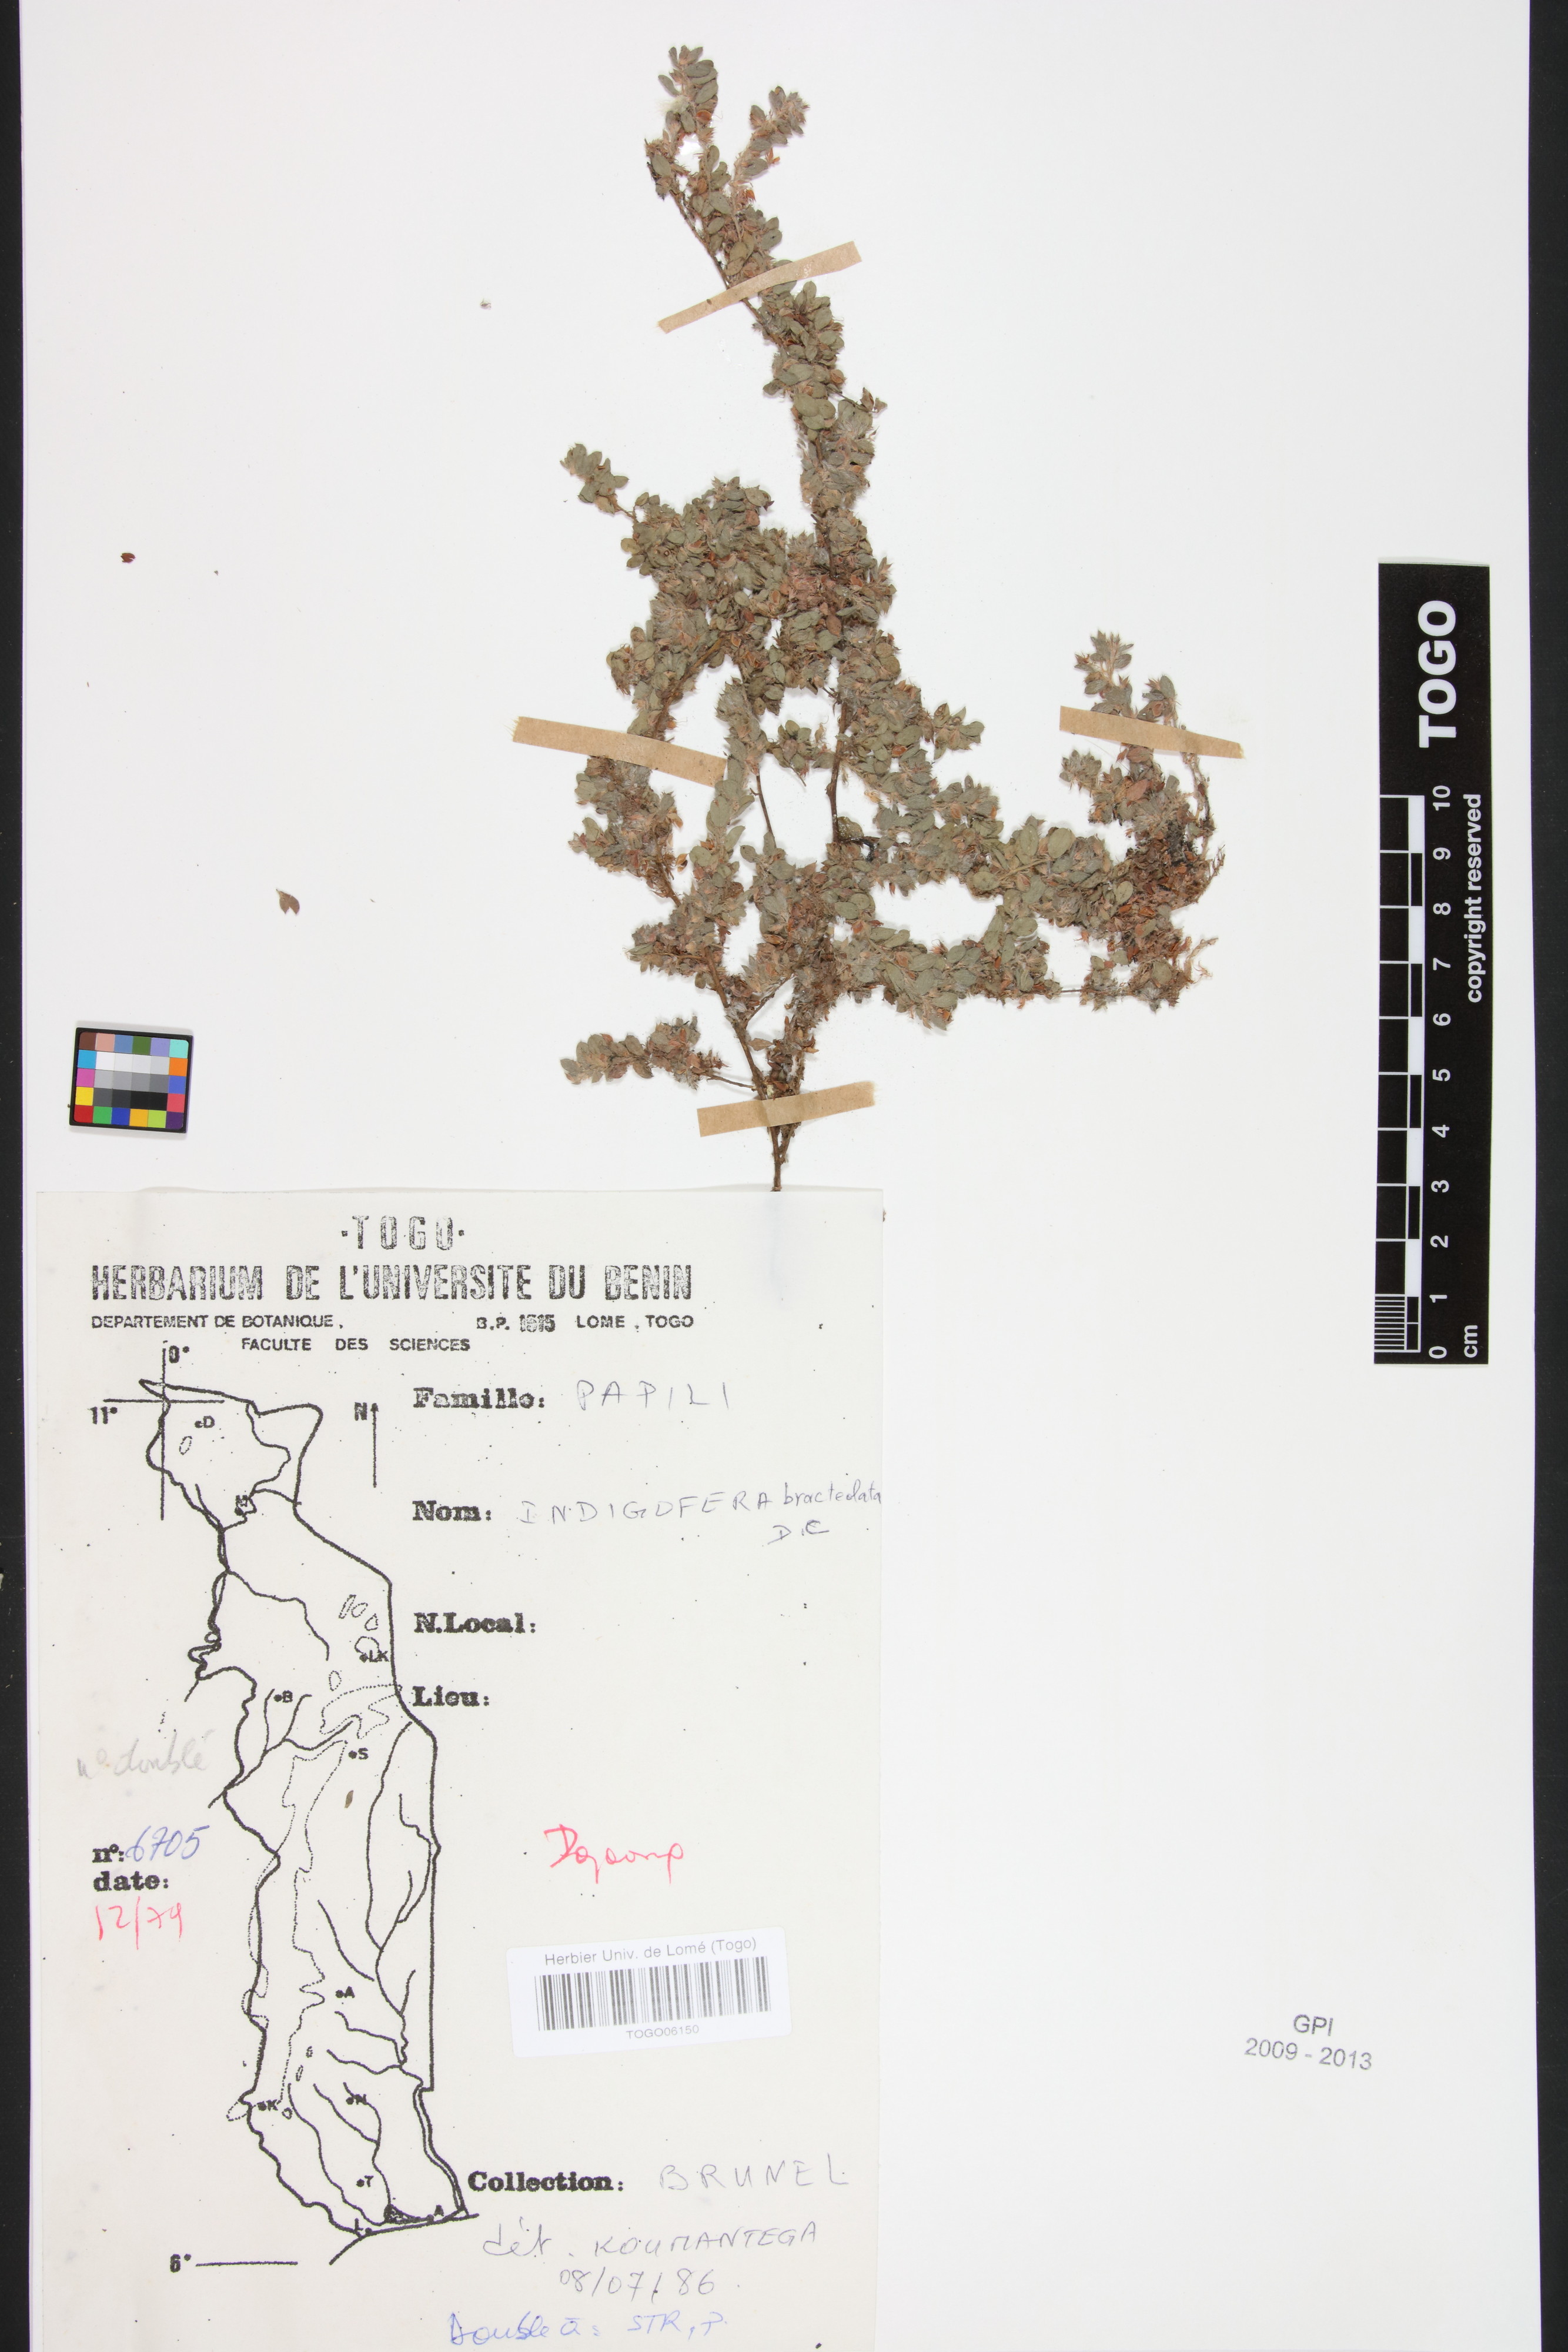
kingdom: Plantae
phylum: Tracheophyta
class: Magnoliopsida
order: Fabales
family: Fabaceae
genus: Indigofera
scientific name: Indigofera bracteolata
